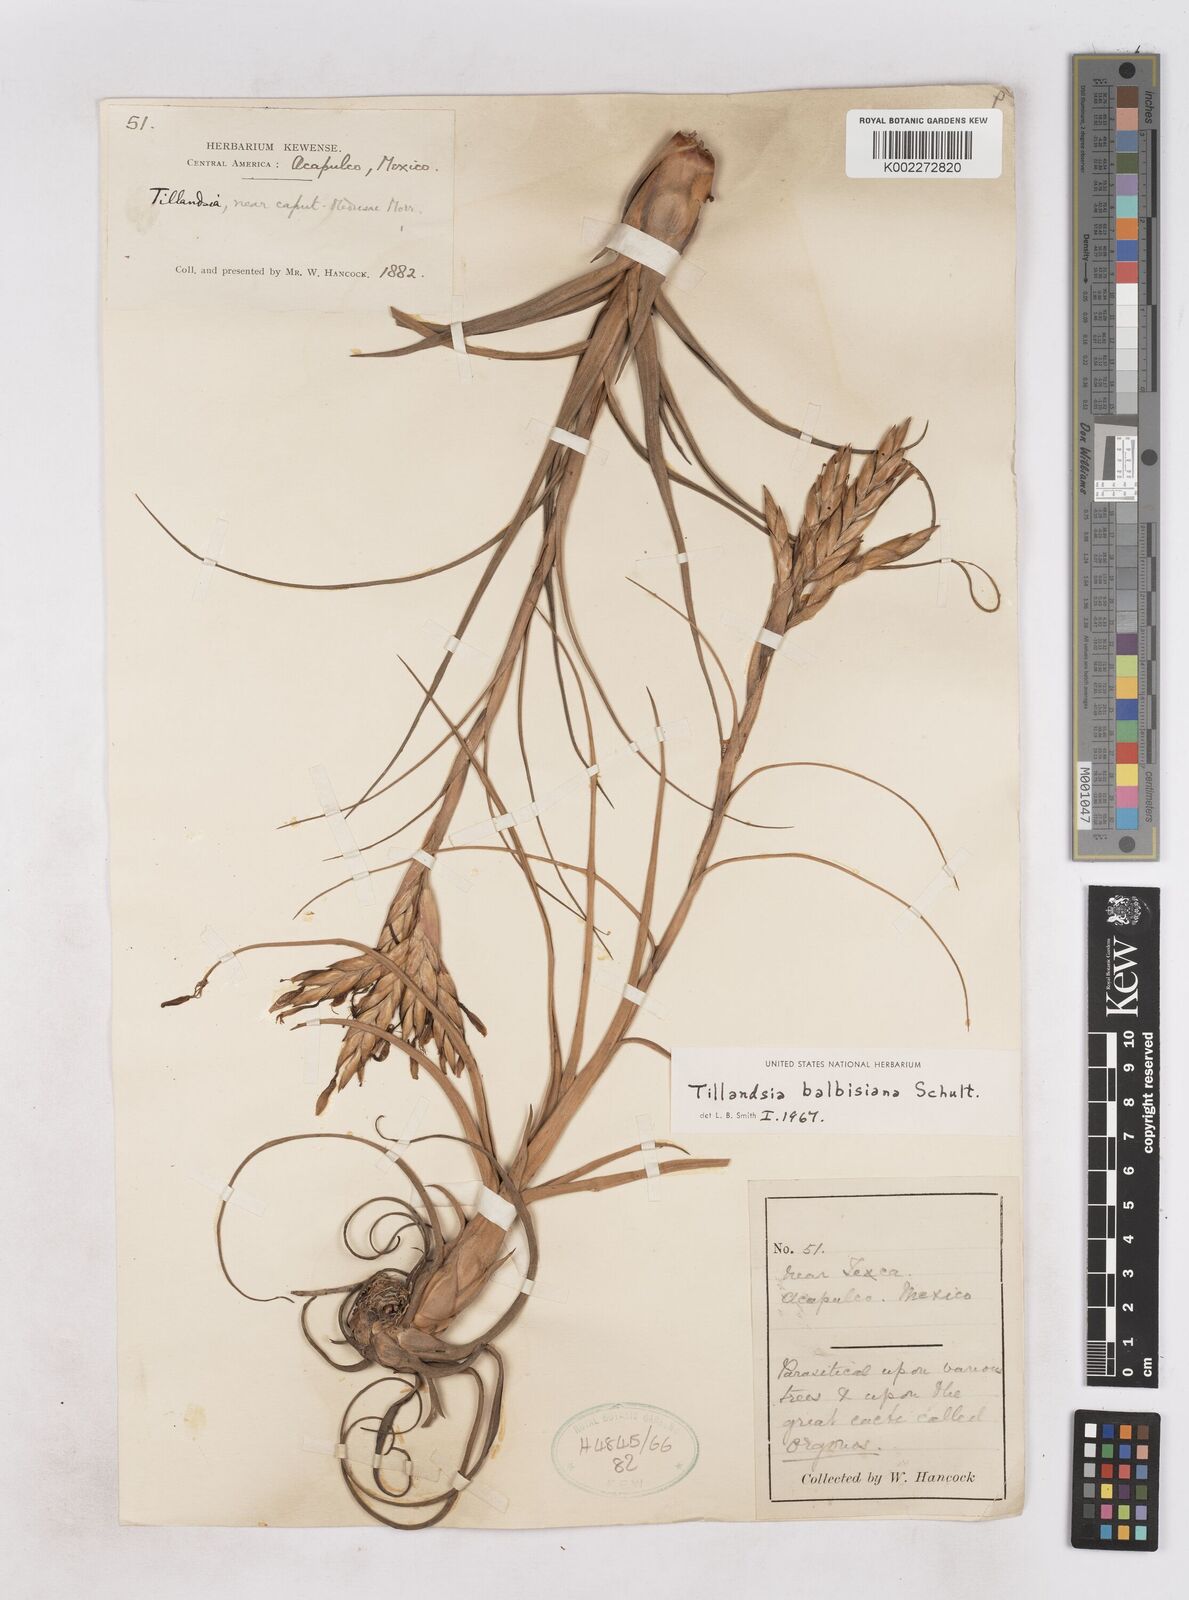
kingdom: Plantae
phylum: Tracheophyta
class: Liliopsida
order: Poales
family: Bromeliaceae
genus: Tillandsia
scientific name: Tillandsia balbisiana
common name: Northern needleleaf
